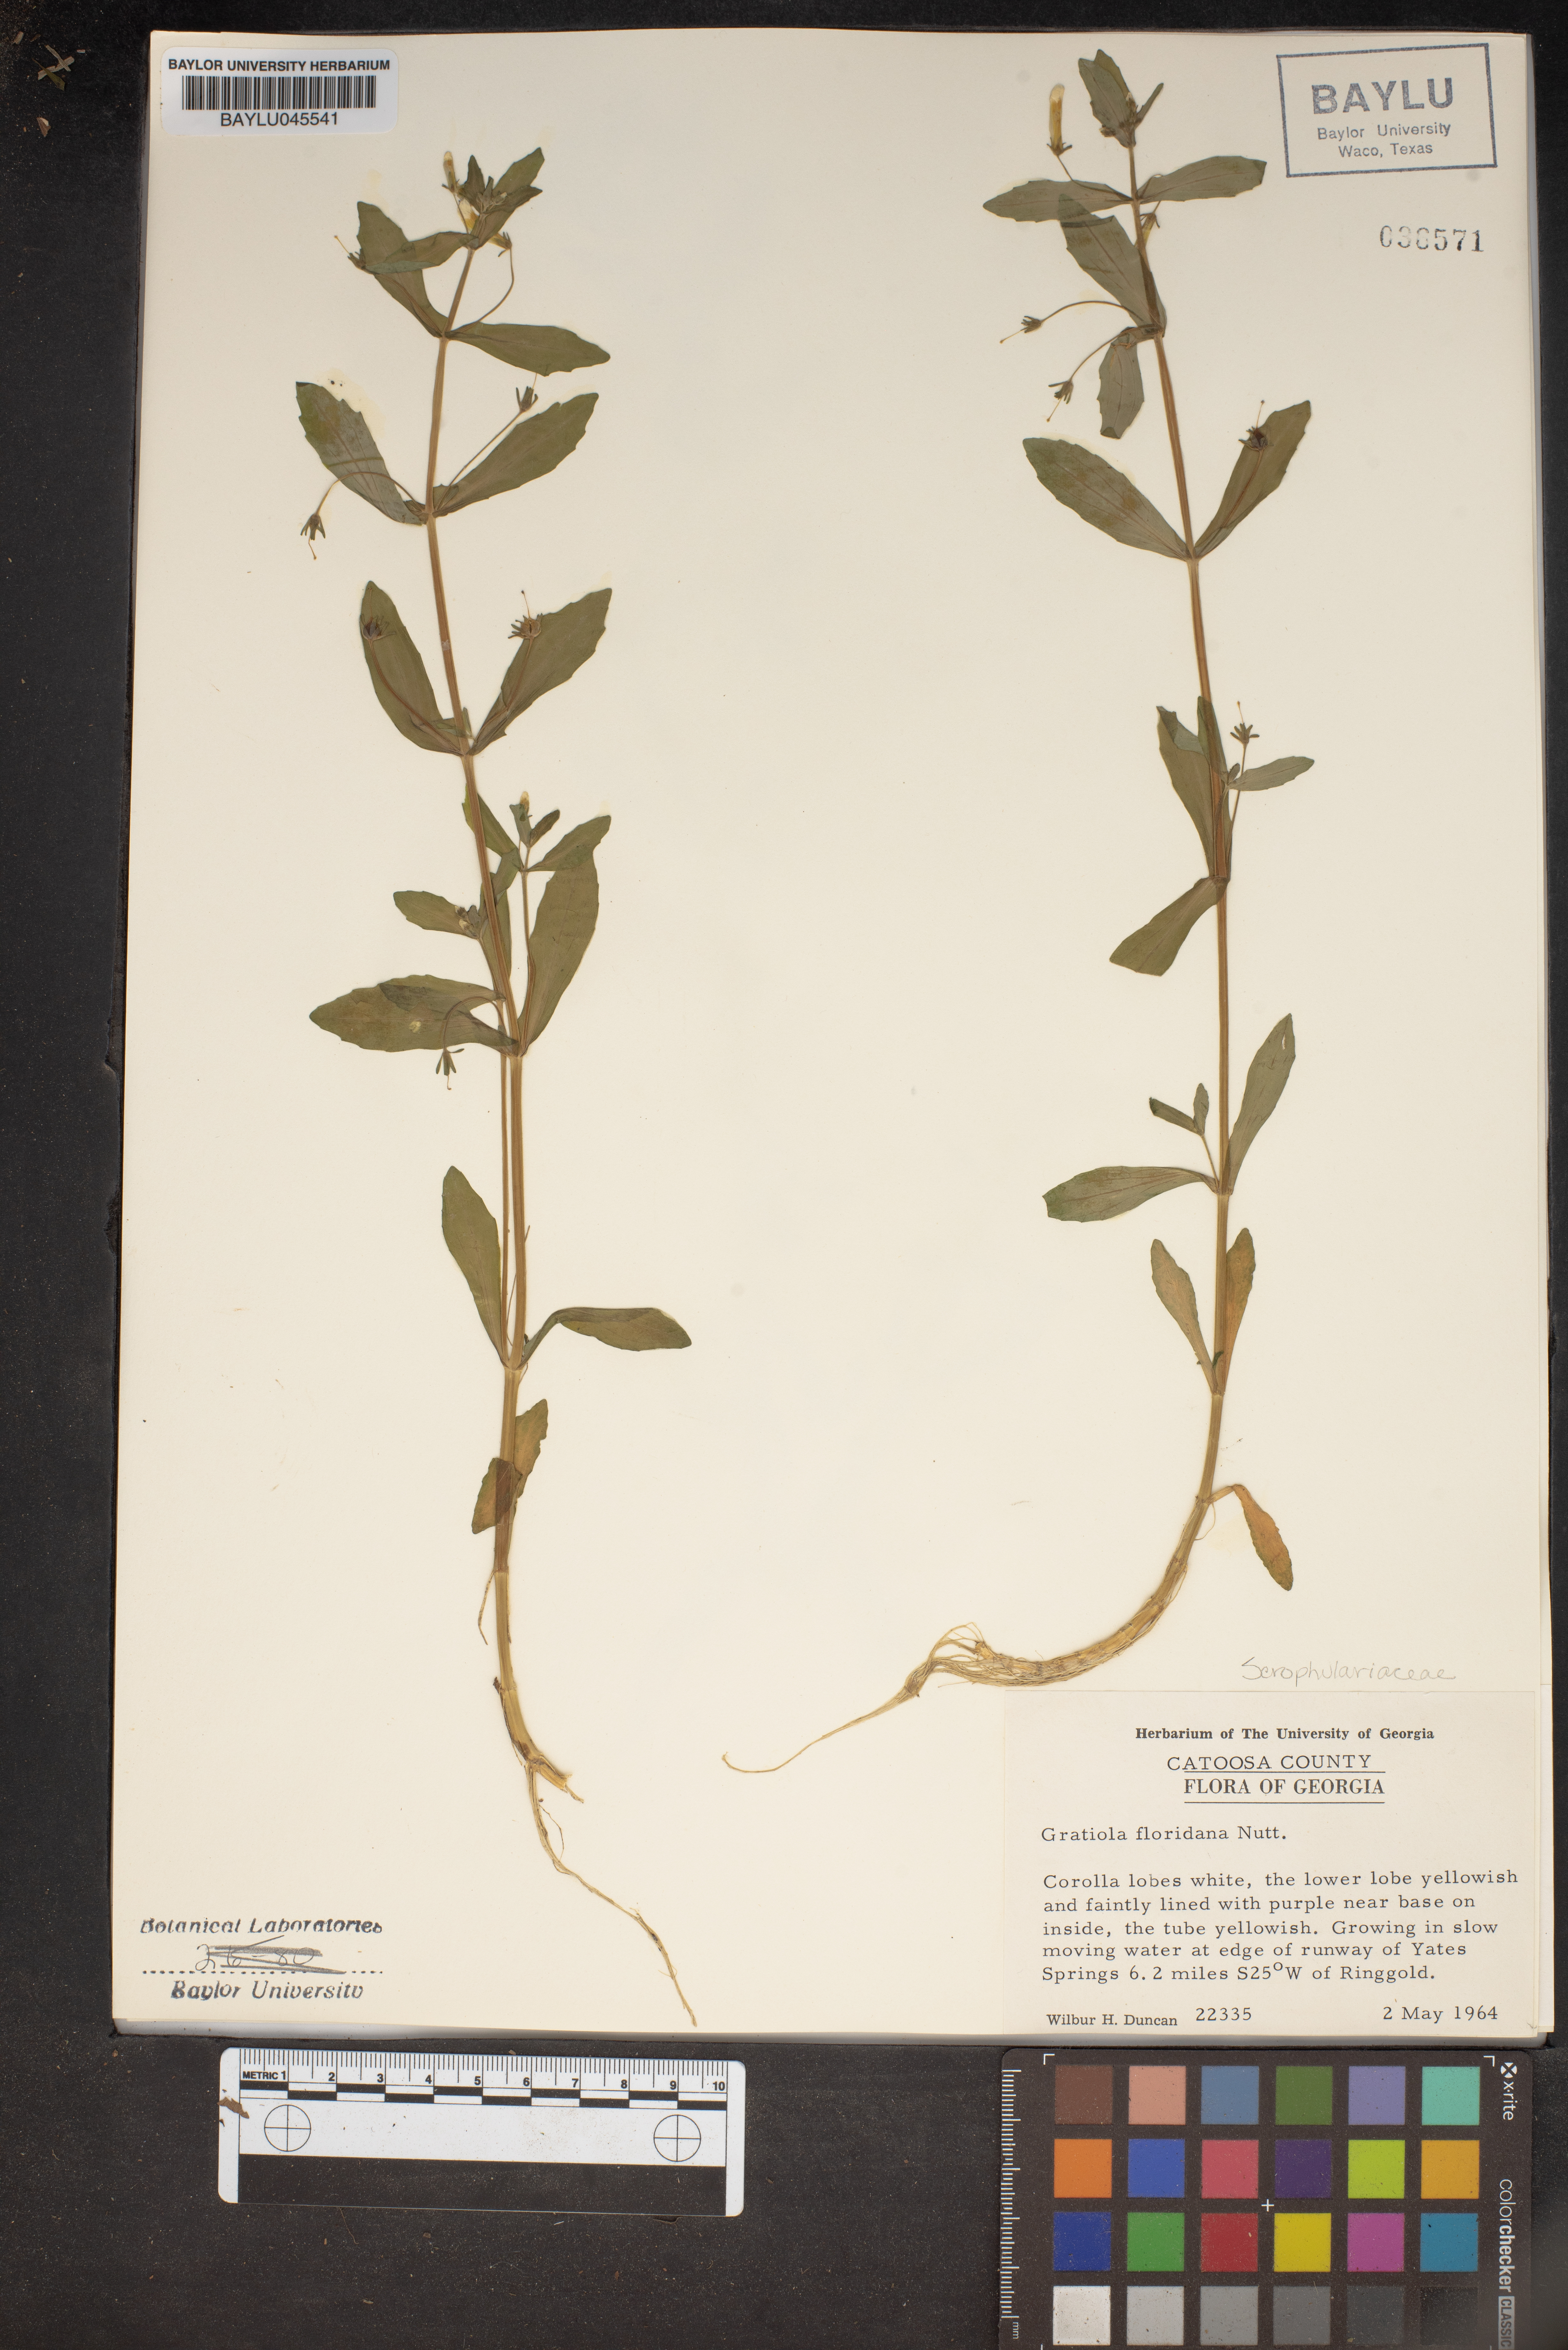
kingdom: Plantae
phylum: Tracheophyta
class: Magnoliopsida
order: Lamiales
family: Plantaginaceae
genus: Gratiola
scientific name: Gratiola floridana
